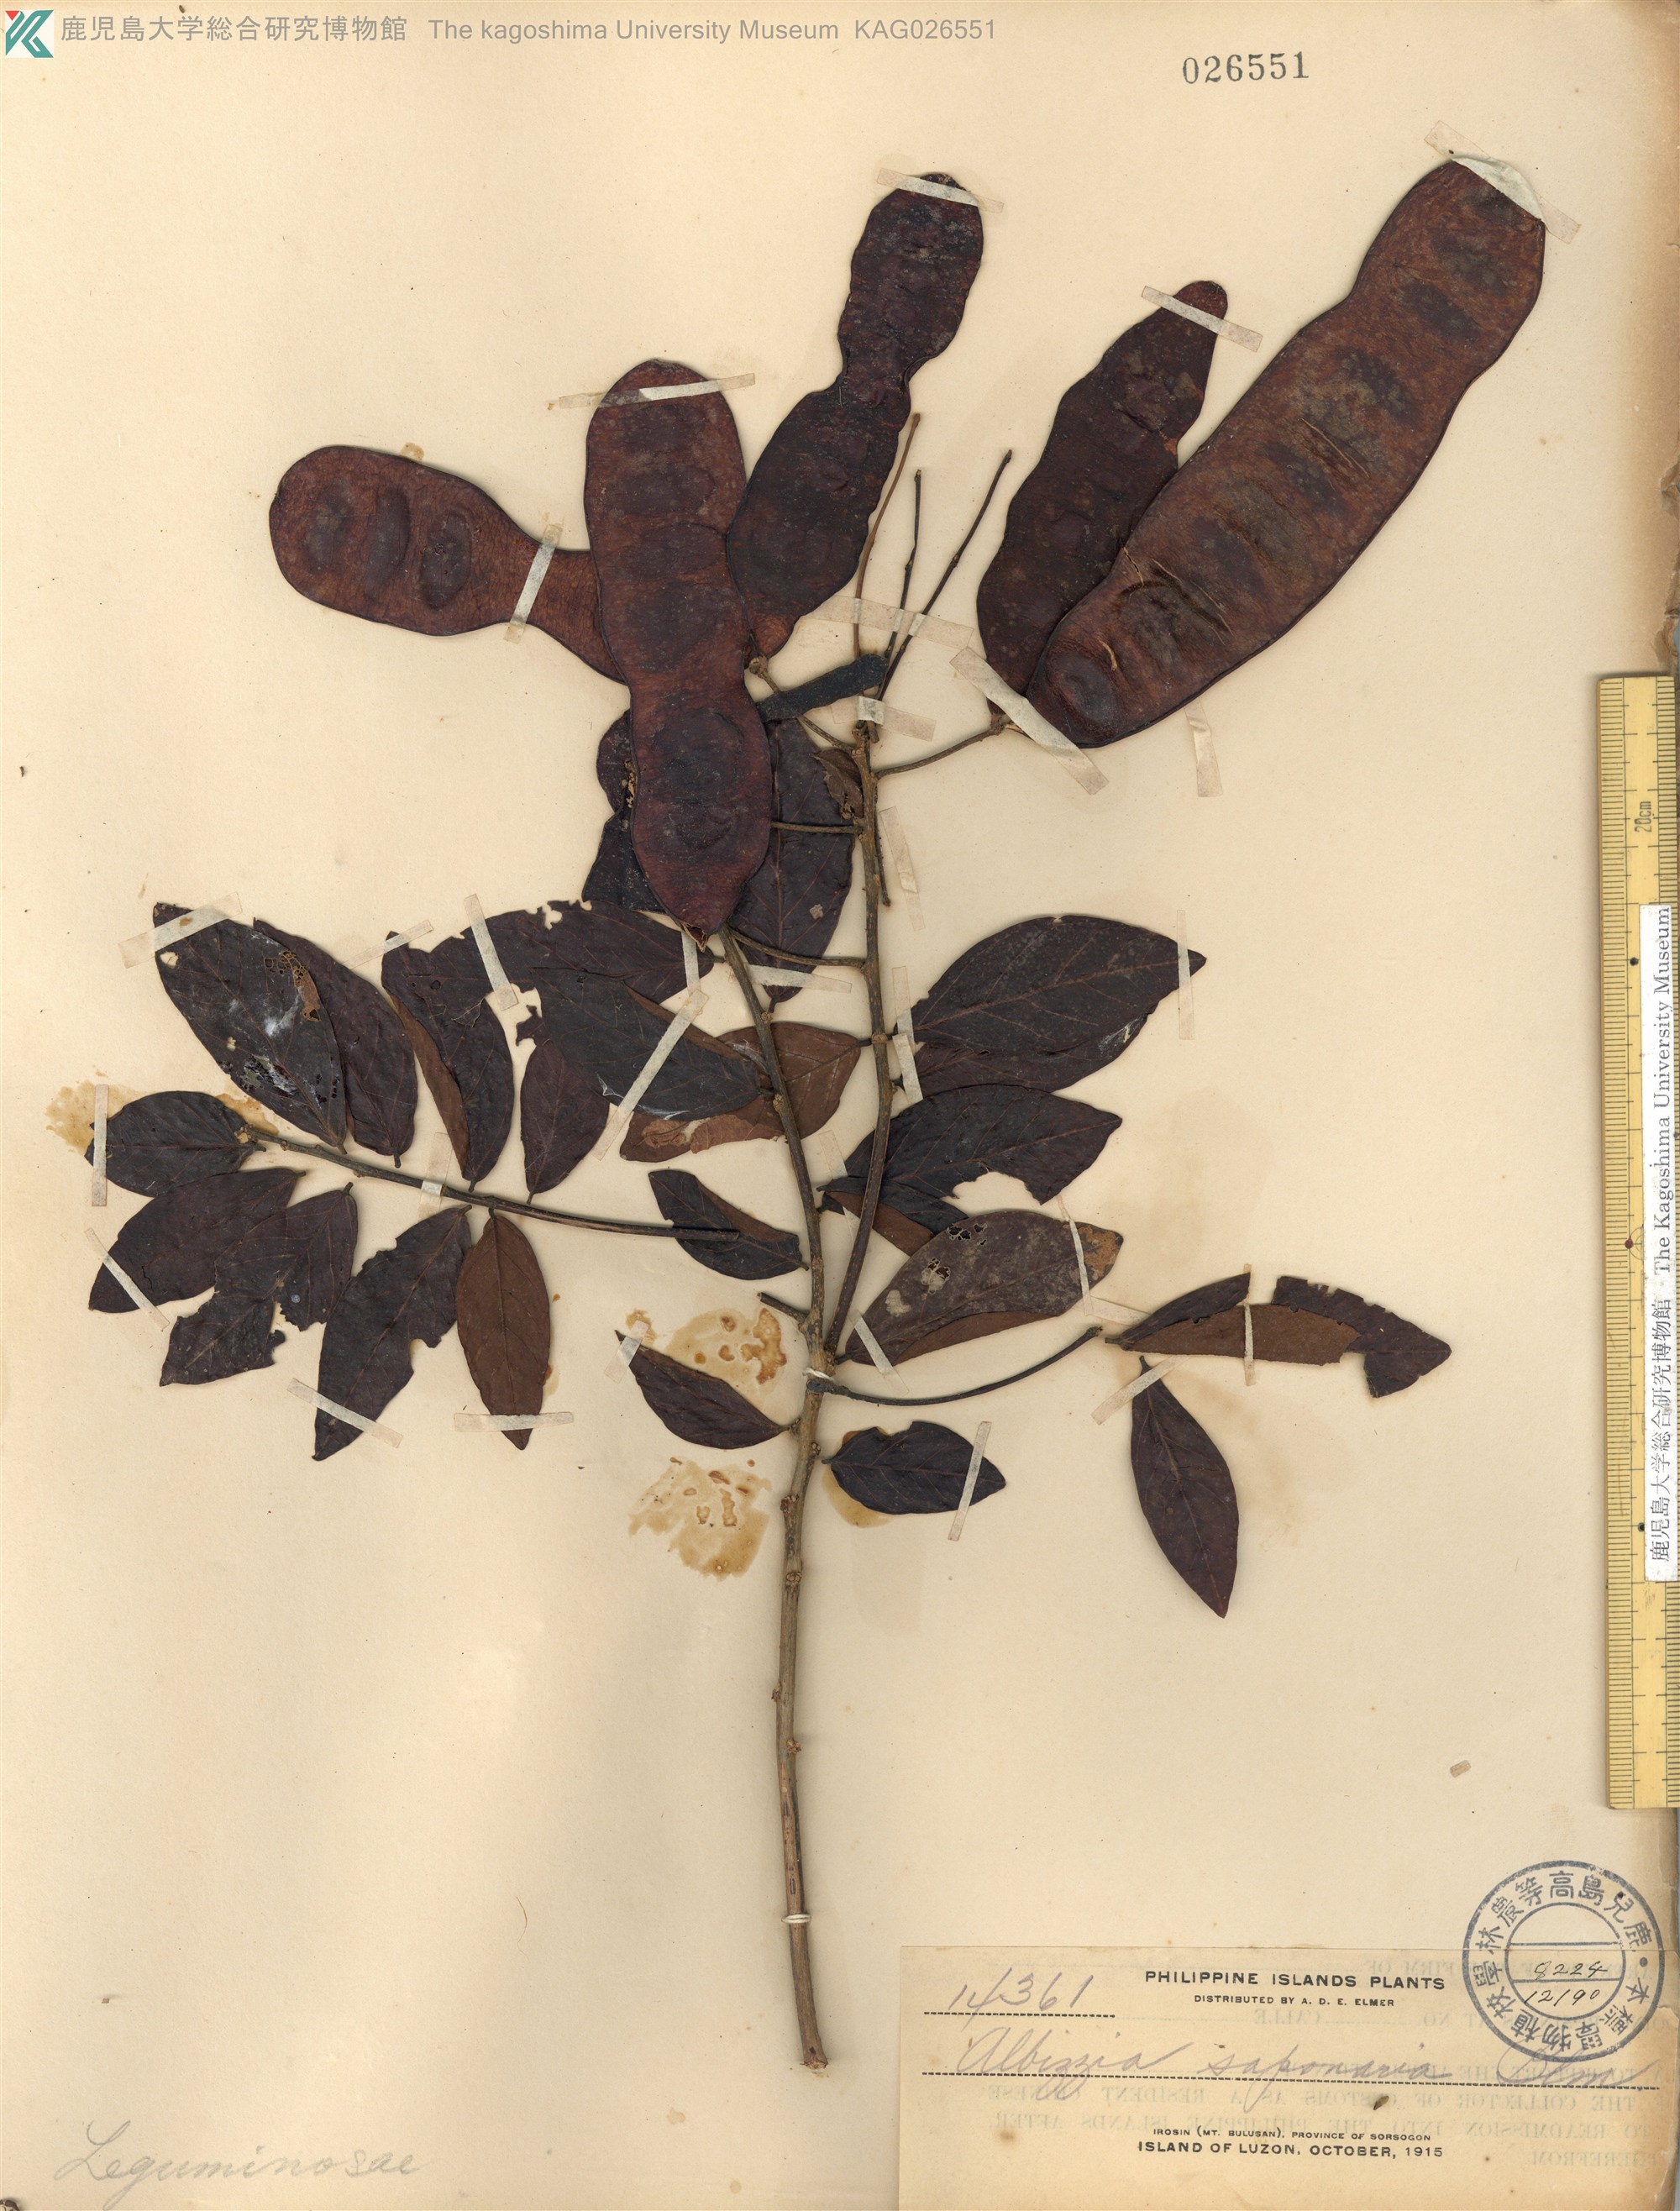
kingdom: Plantae
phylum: Tracheophyta
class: Magnoliopsida
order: Fabales
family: Fabaceae
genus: Albizia
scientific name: Albizia saponaria
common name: Whiteflower albizia
